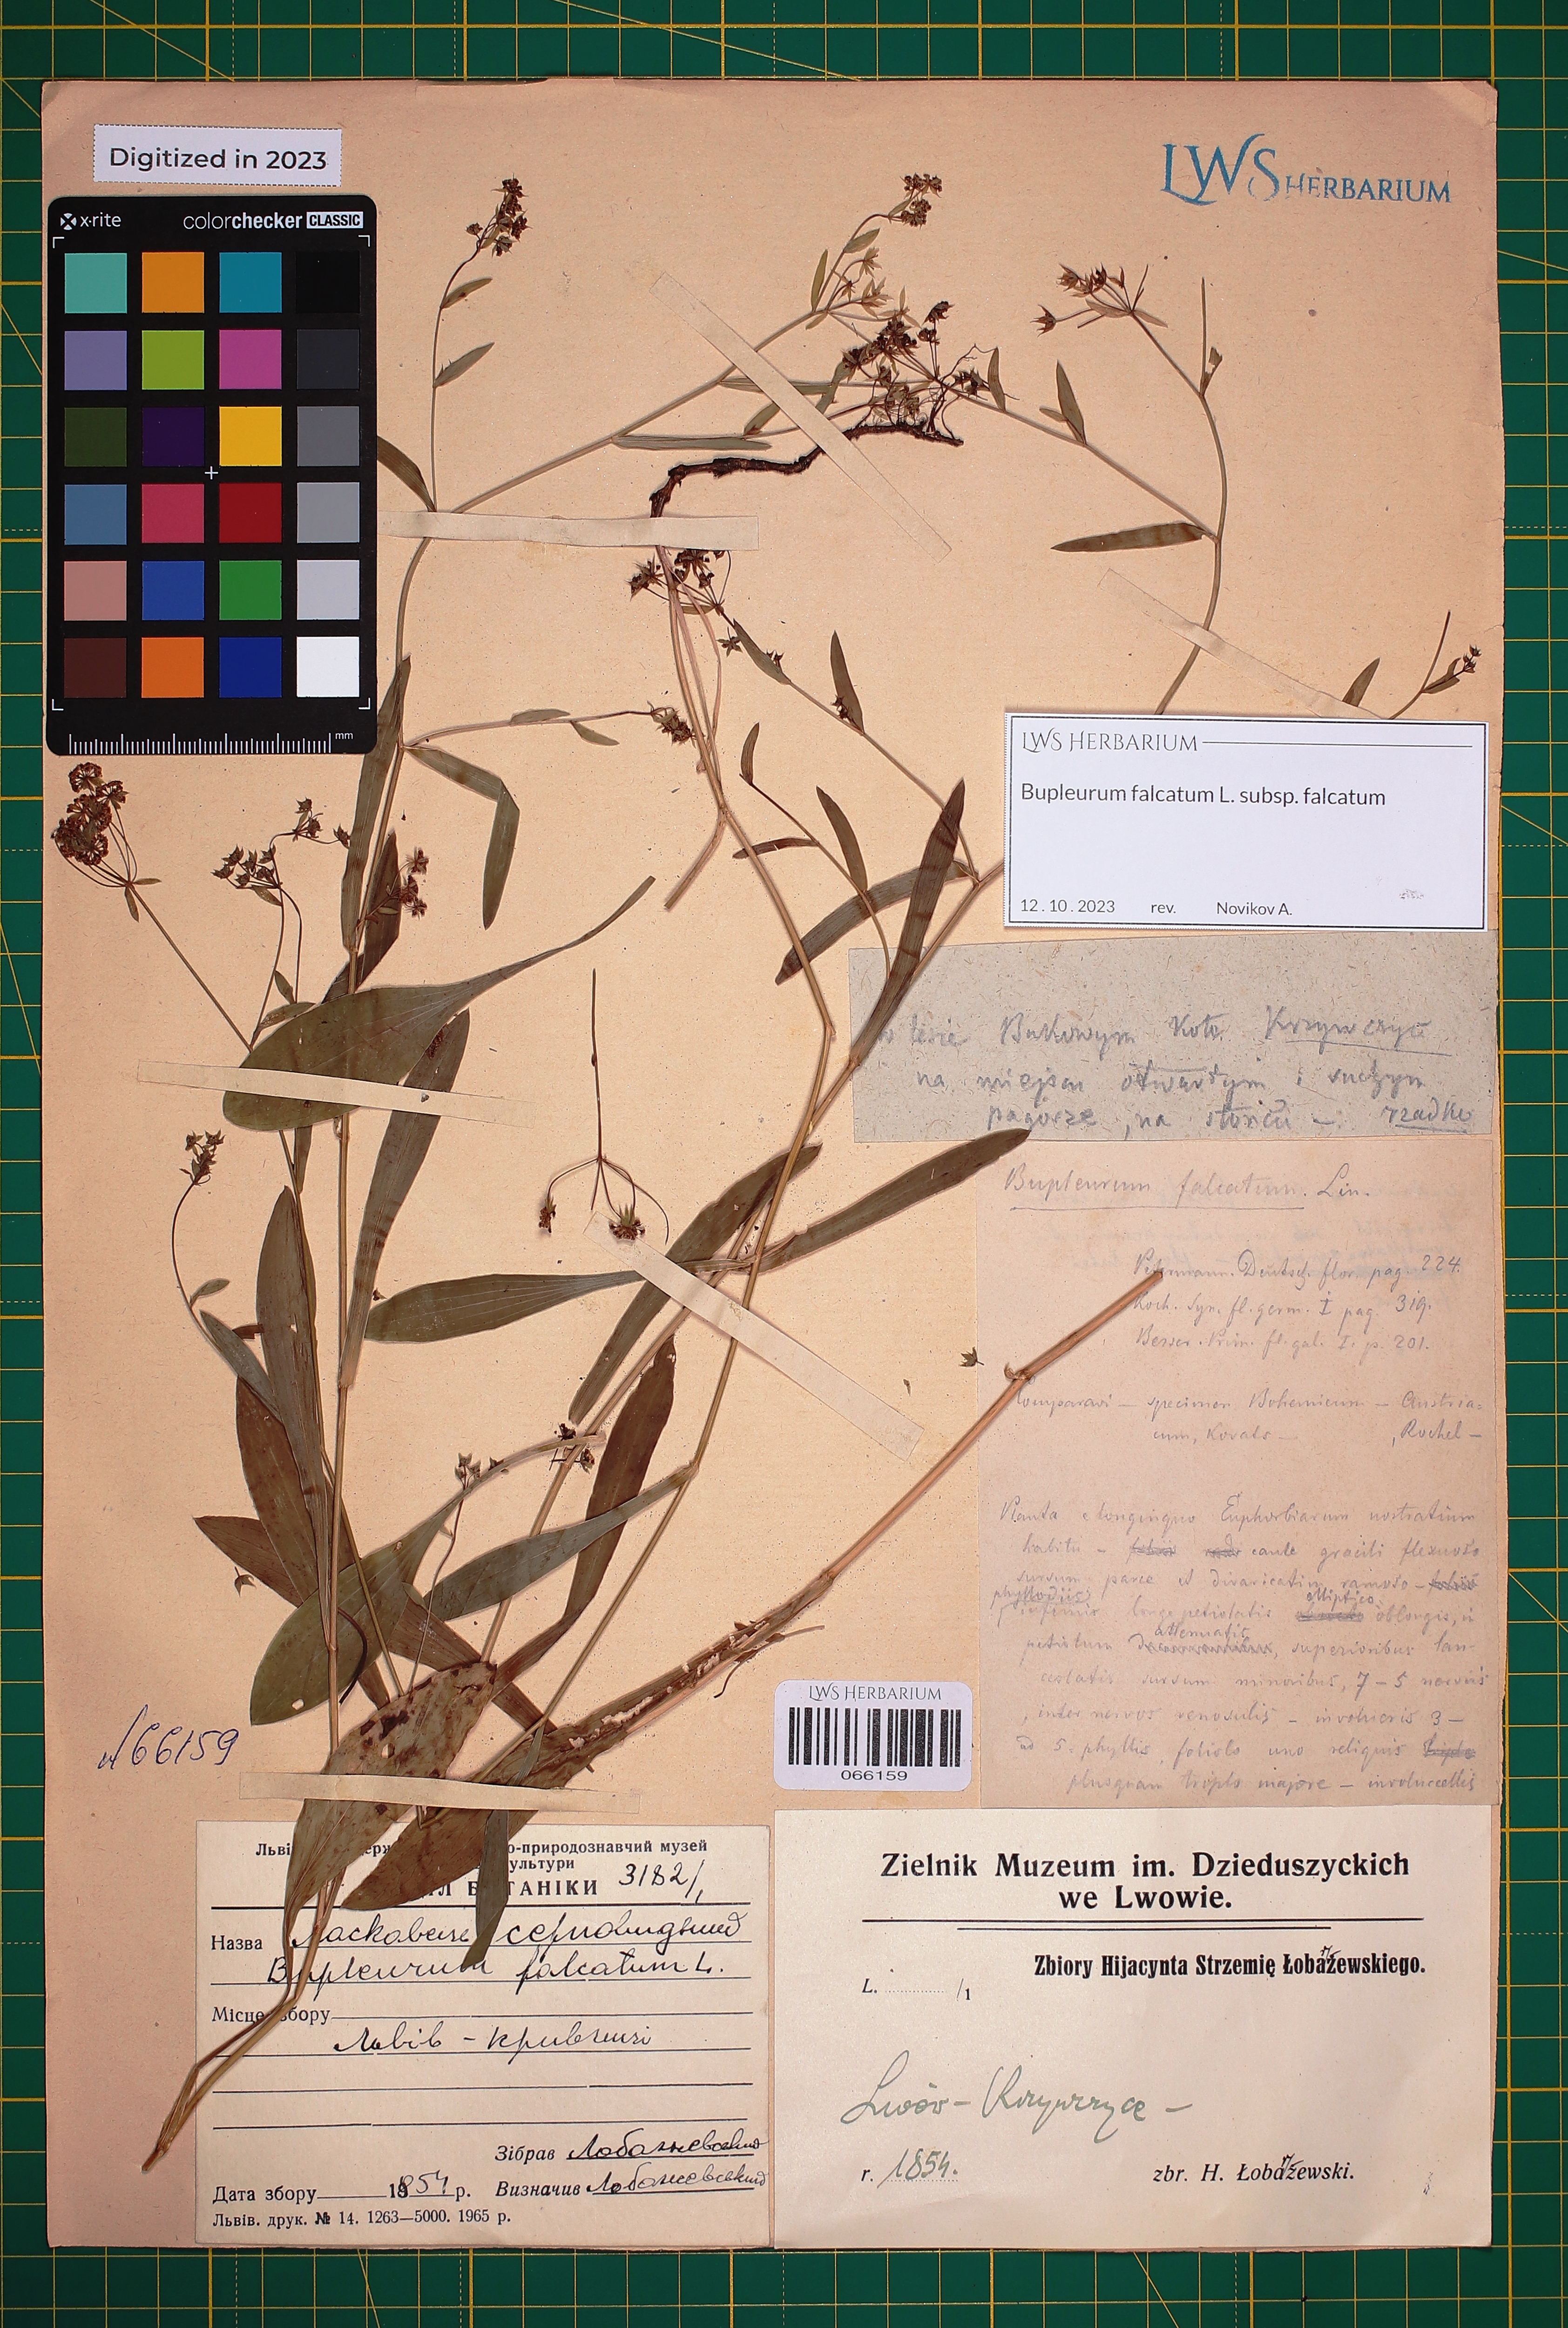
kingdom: Plantae
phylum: Tracheophyta
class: Magnoliopsida
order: Apiales
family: Apiaceae
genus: Bupleurum
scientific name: Bupleurum falcatum
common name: Sickle-leaved hare's-ear
